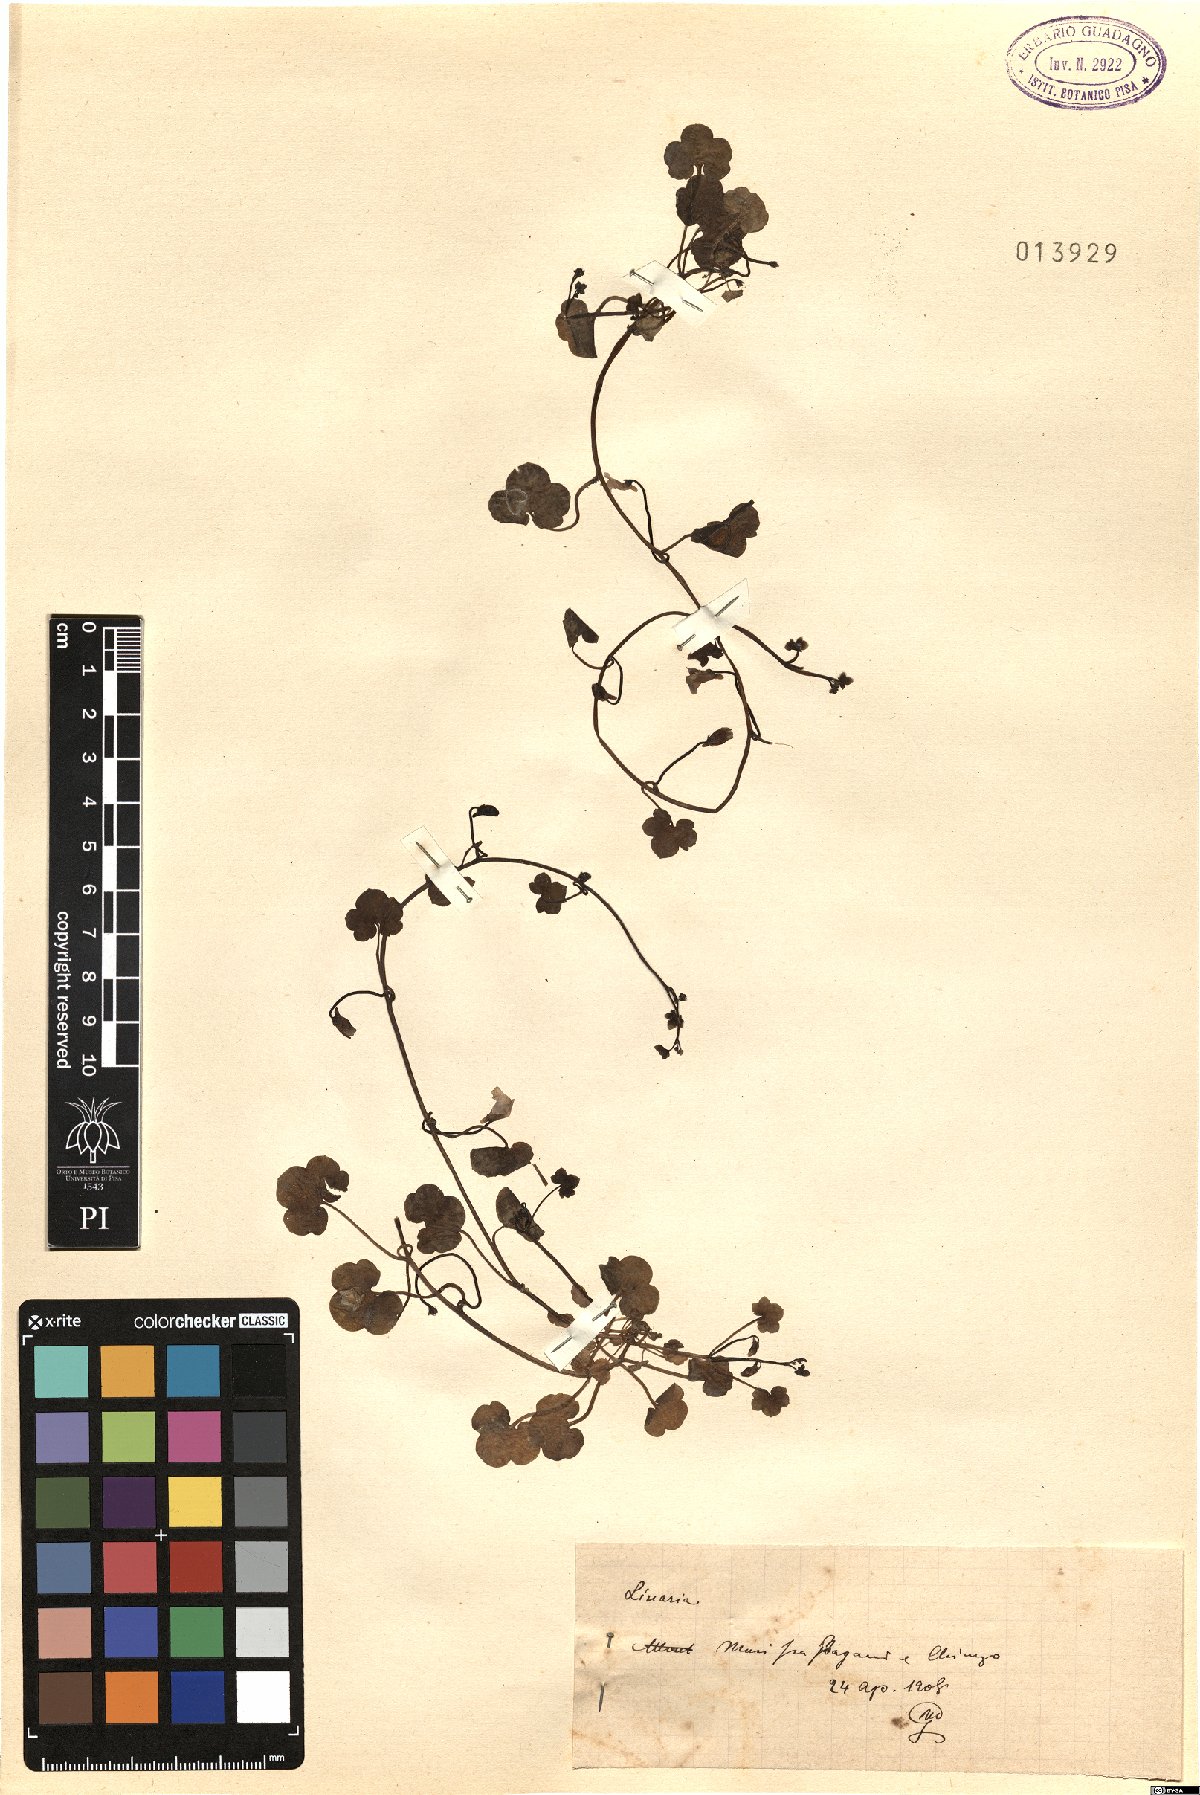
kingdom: Plantae
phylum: Tracheophyta
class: Magnoliopsida
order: Lamiales
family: Plantaginaceae
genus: Linaria
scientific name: Linaria
